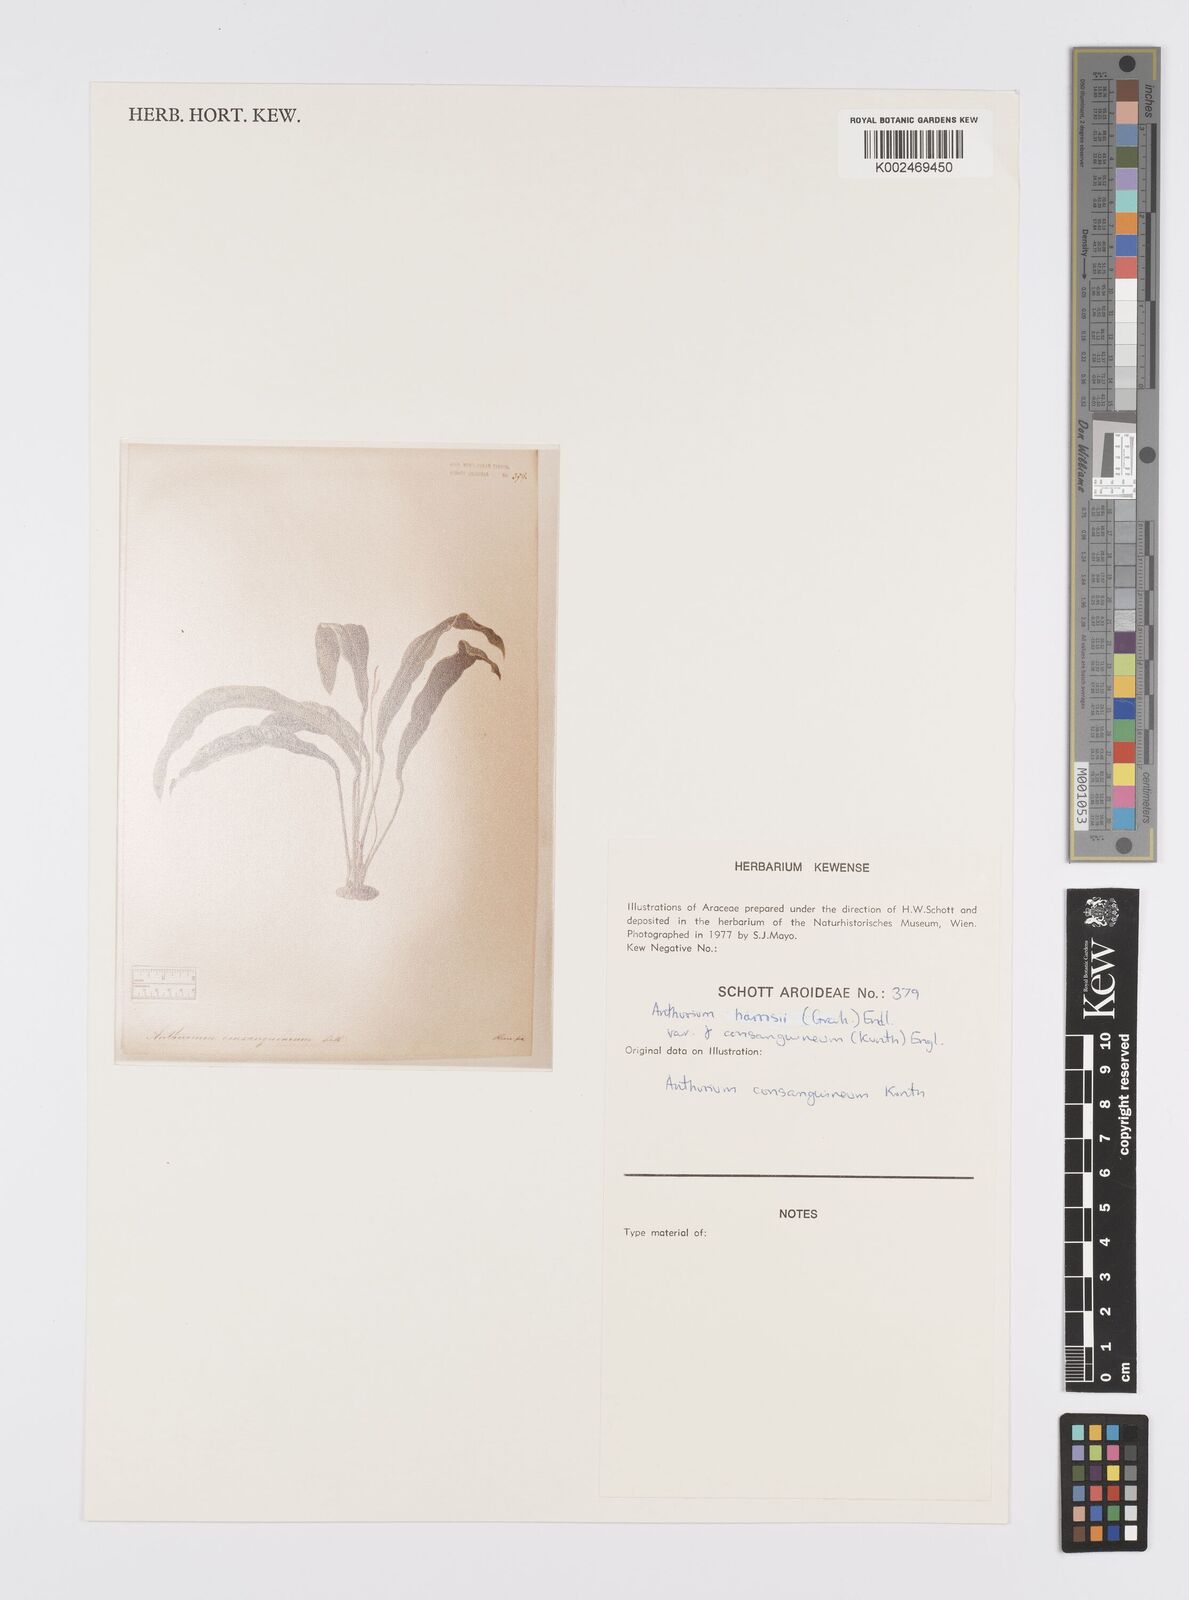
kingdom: Plantae
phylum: Tracheophyta
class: Liliopsida
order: Alismatales
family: Araceae
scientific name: Araceae
